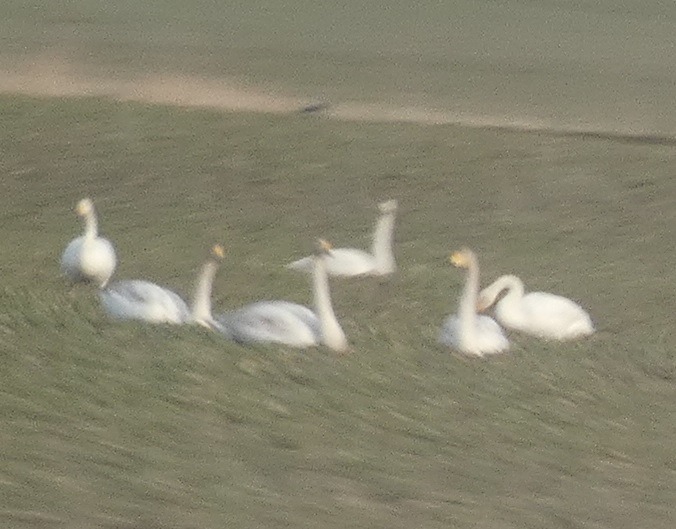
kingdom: Animalia
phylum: Chordata
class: Aves
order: Anseriformes
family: Anatidae
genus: Cygnus
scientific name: Cygnus cygnus
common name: Sangsvane
